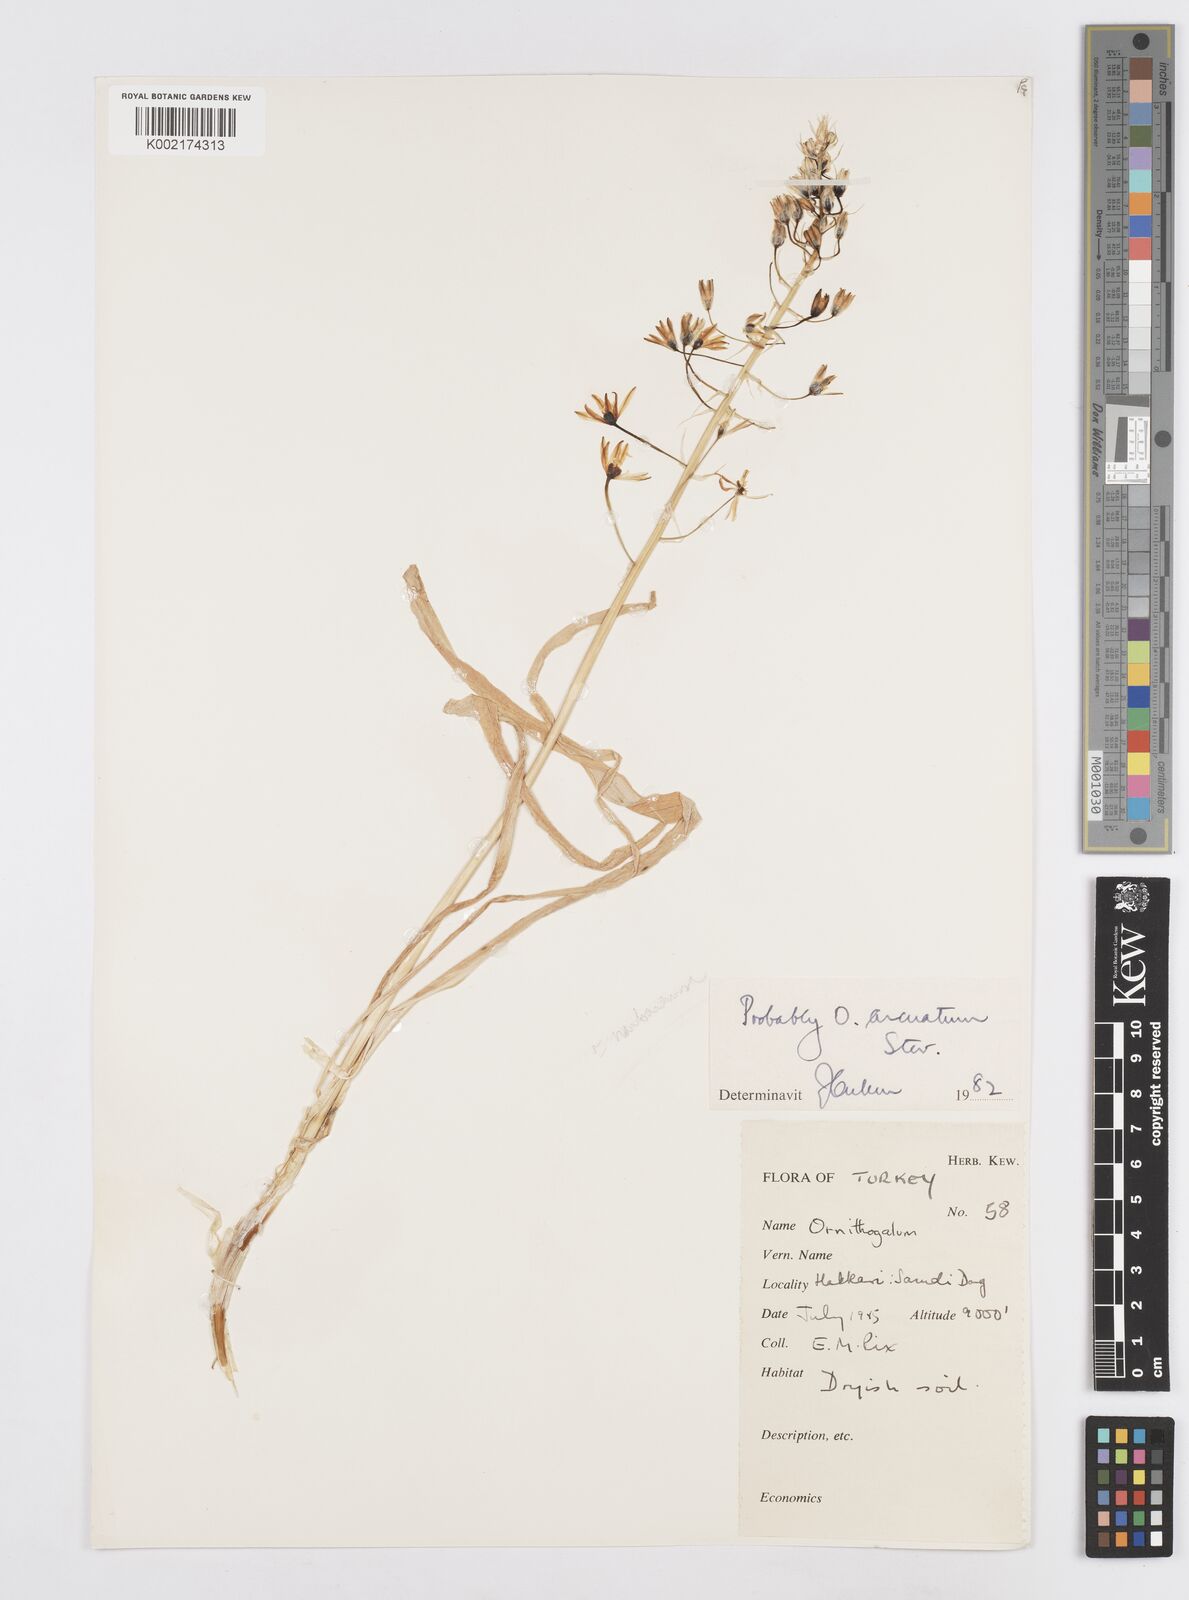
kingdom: Plantae
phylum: Tracheophyta
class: Liliopsida
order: Asparagales
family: Asparagaceae
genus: Ornithogalum
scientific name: Ornithogalum narbonense
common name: Bath-asparagus
